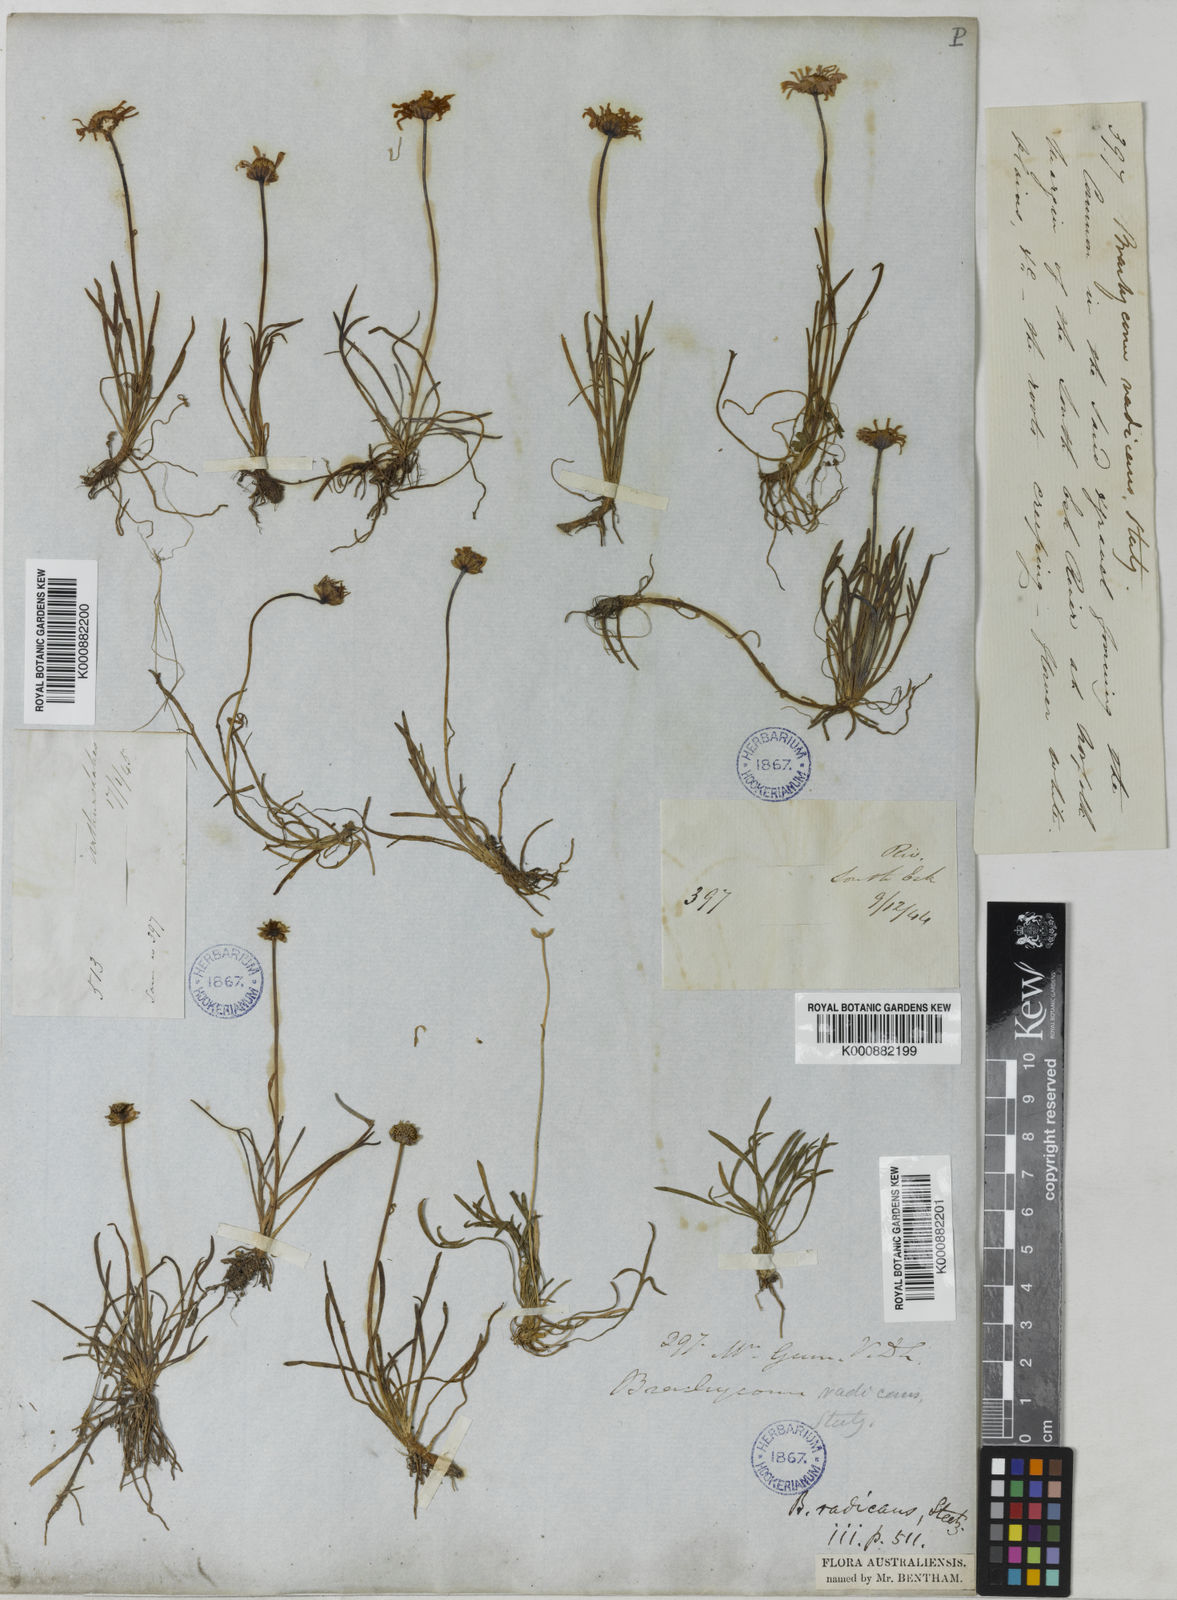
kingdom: Plantae
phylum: Tracheophyta
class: Magnoliopsida
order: Asterales
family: Asteraceae
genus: Brachyscome
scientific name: Brachyscome radicans
